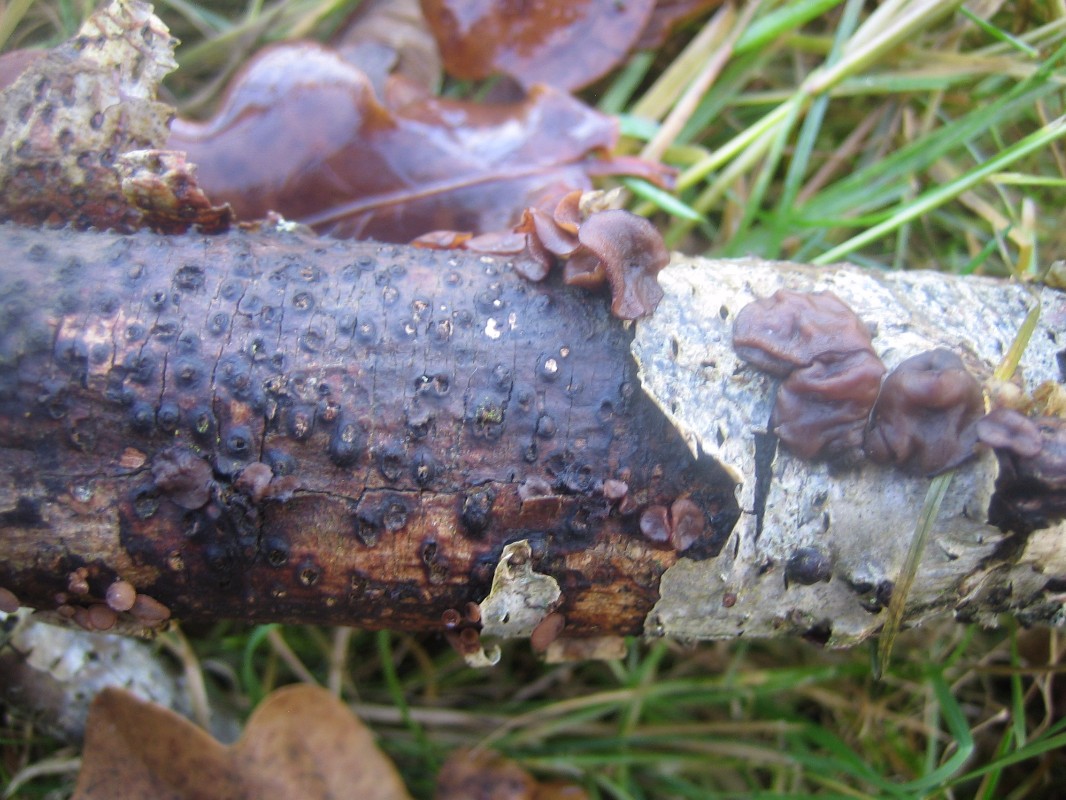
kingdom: Fungi
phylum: Ascomycota
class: Leotiomycetes
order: Helotiales
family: Rutstroemiaceae
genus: Rutstroemia
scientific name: Rutstroemia firma
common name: gren-brunskive
